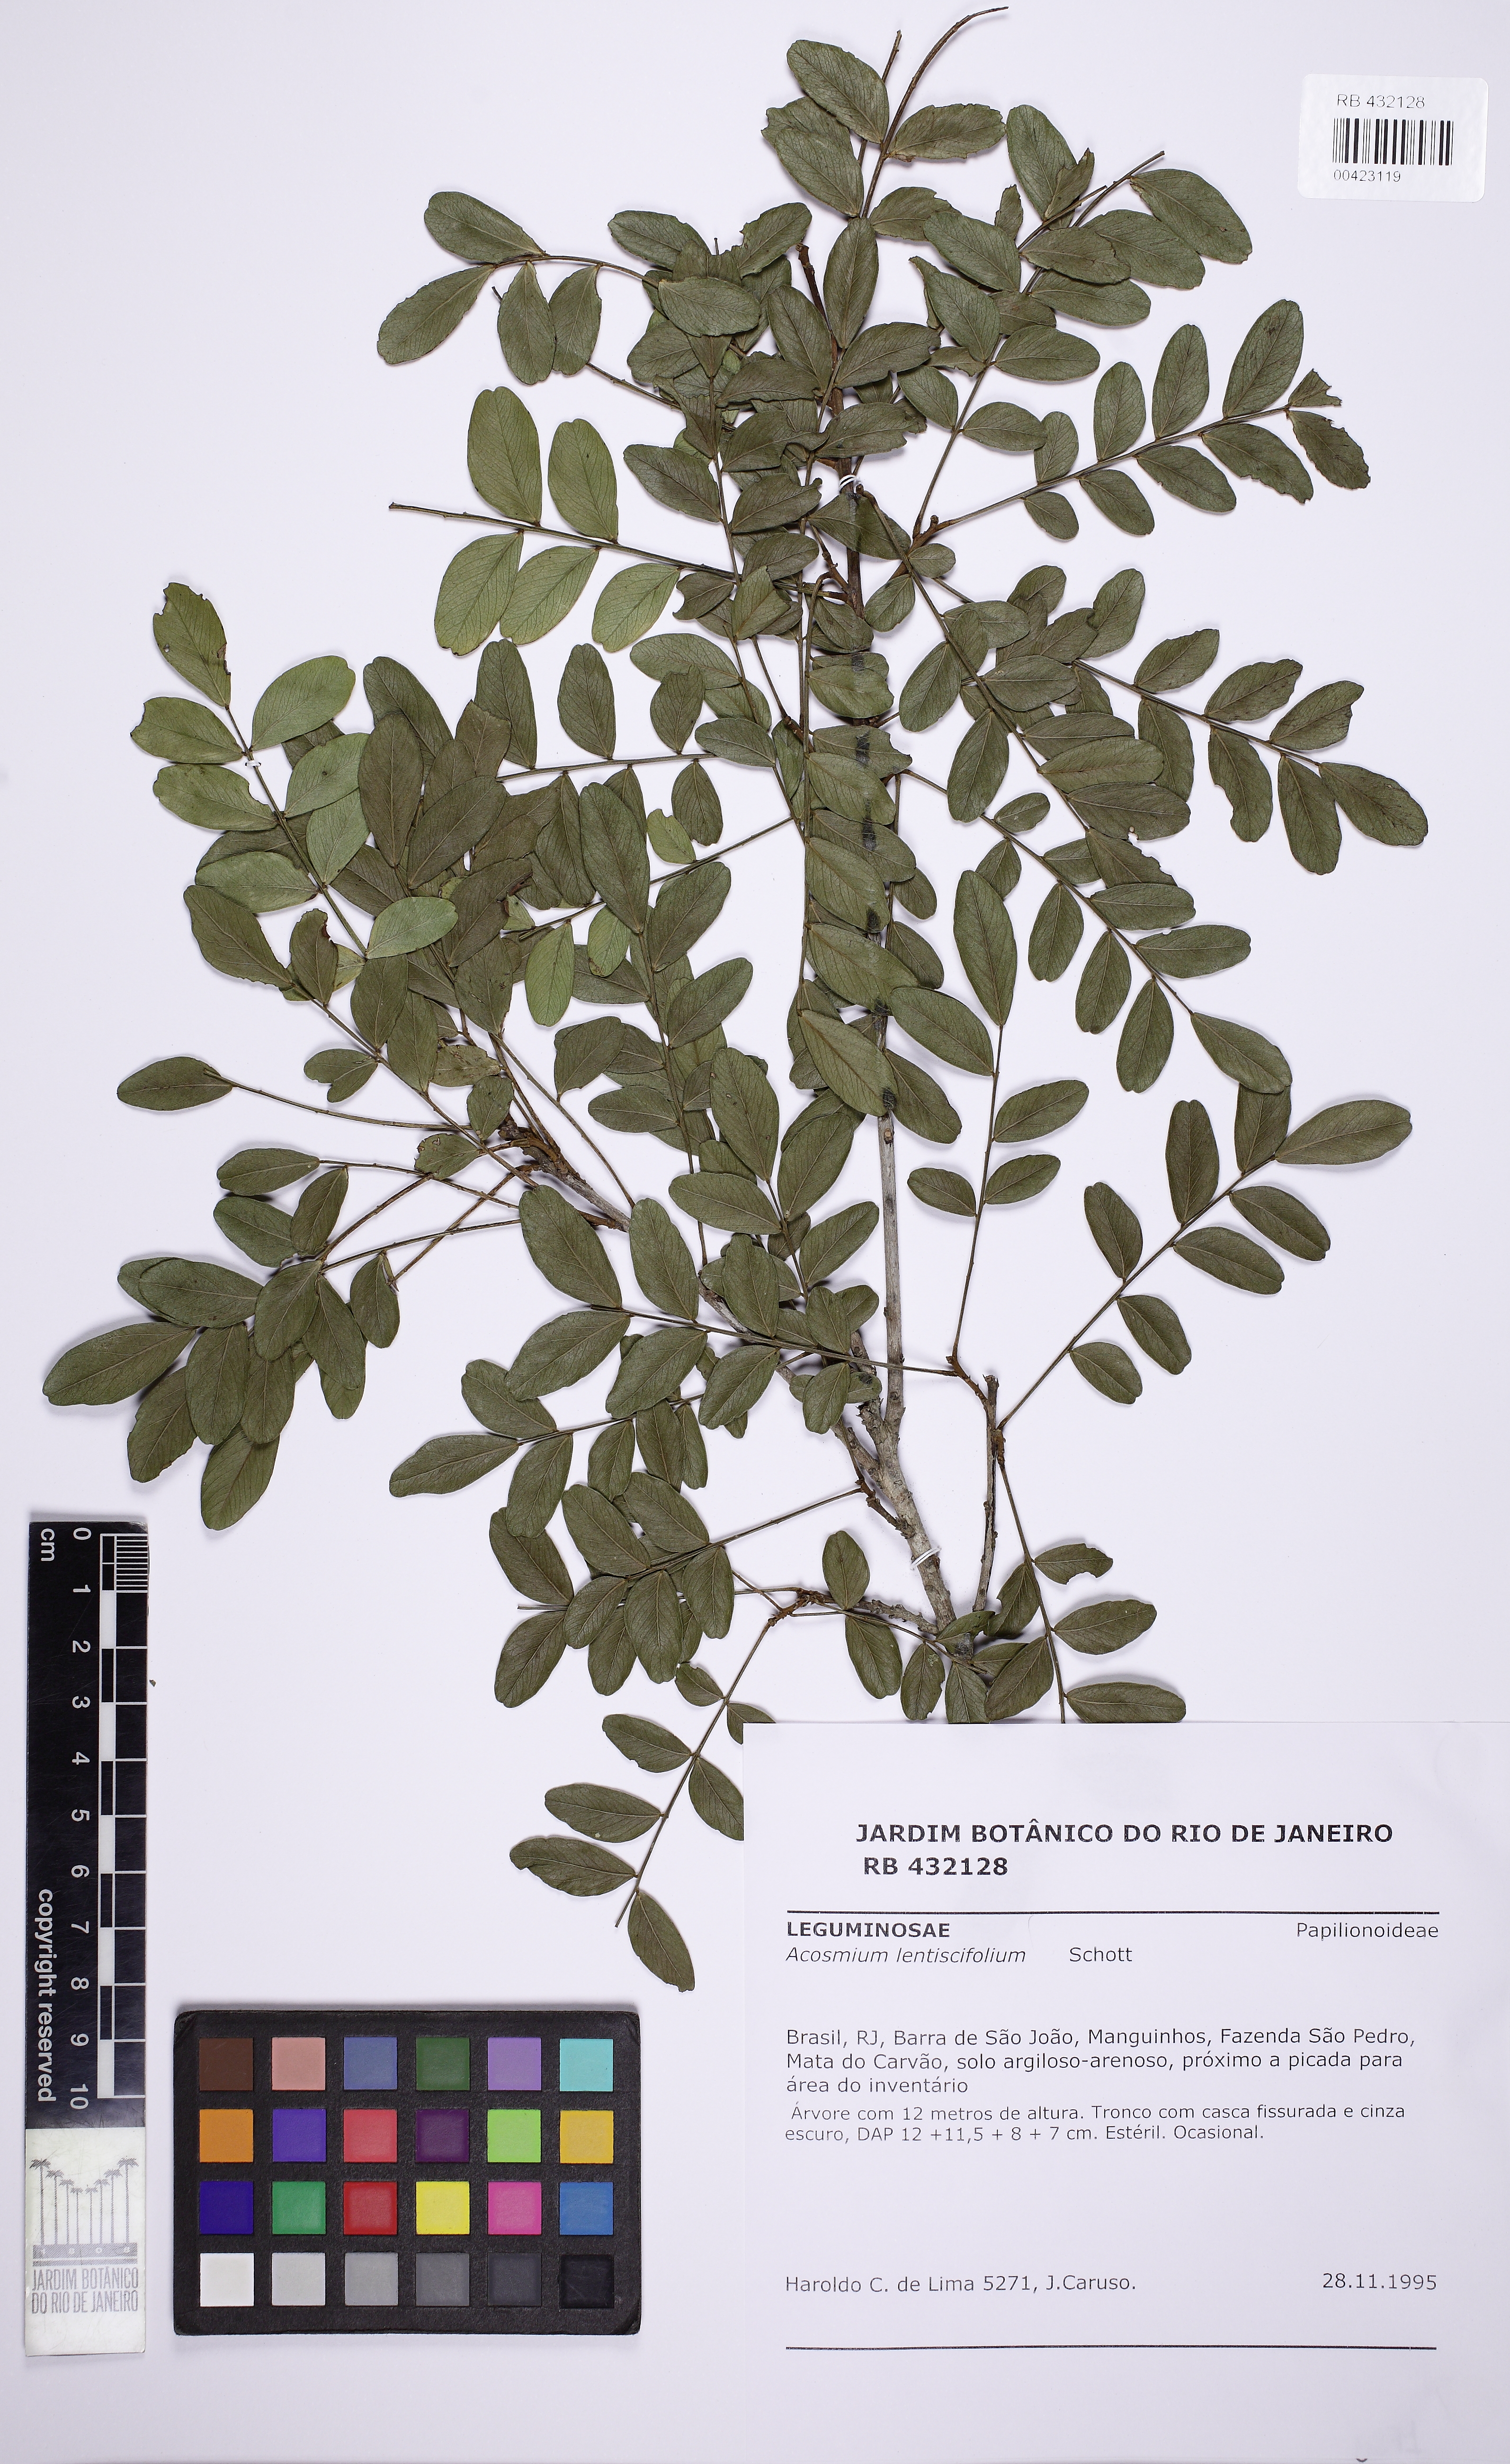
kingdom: Plantae
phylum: Tracheophyta
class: Magnoliopsida
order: Fabales
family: Fabaceae
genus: Acosmium
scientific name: Acosmium lentiscifolium
